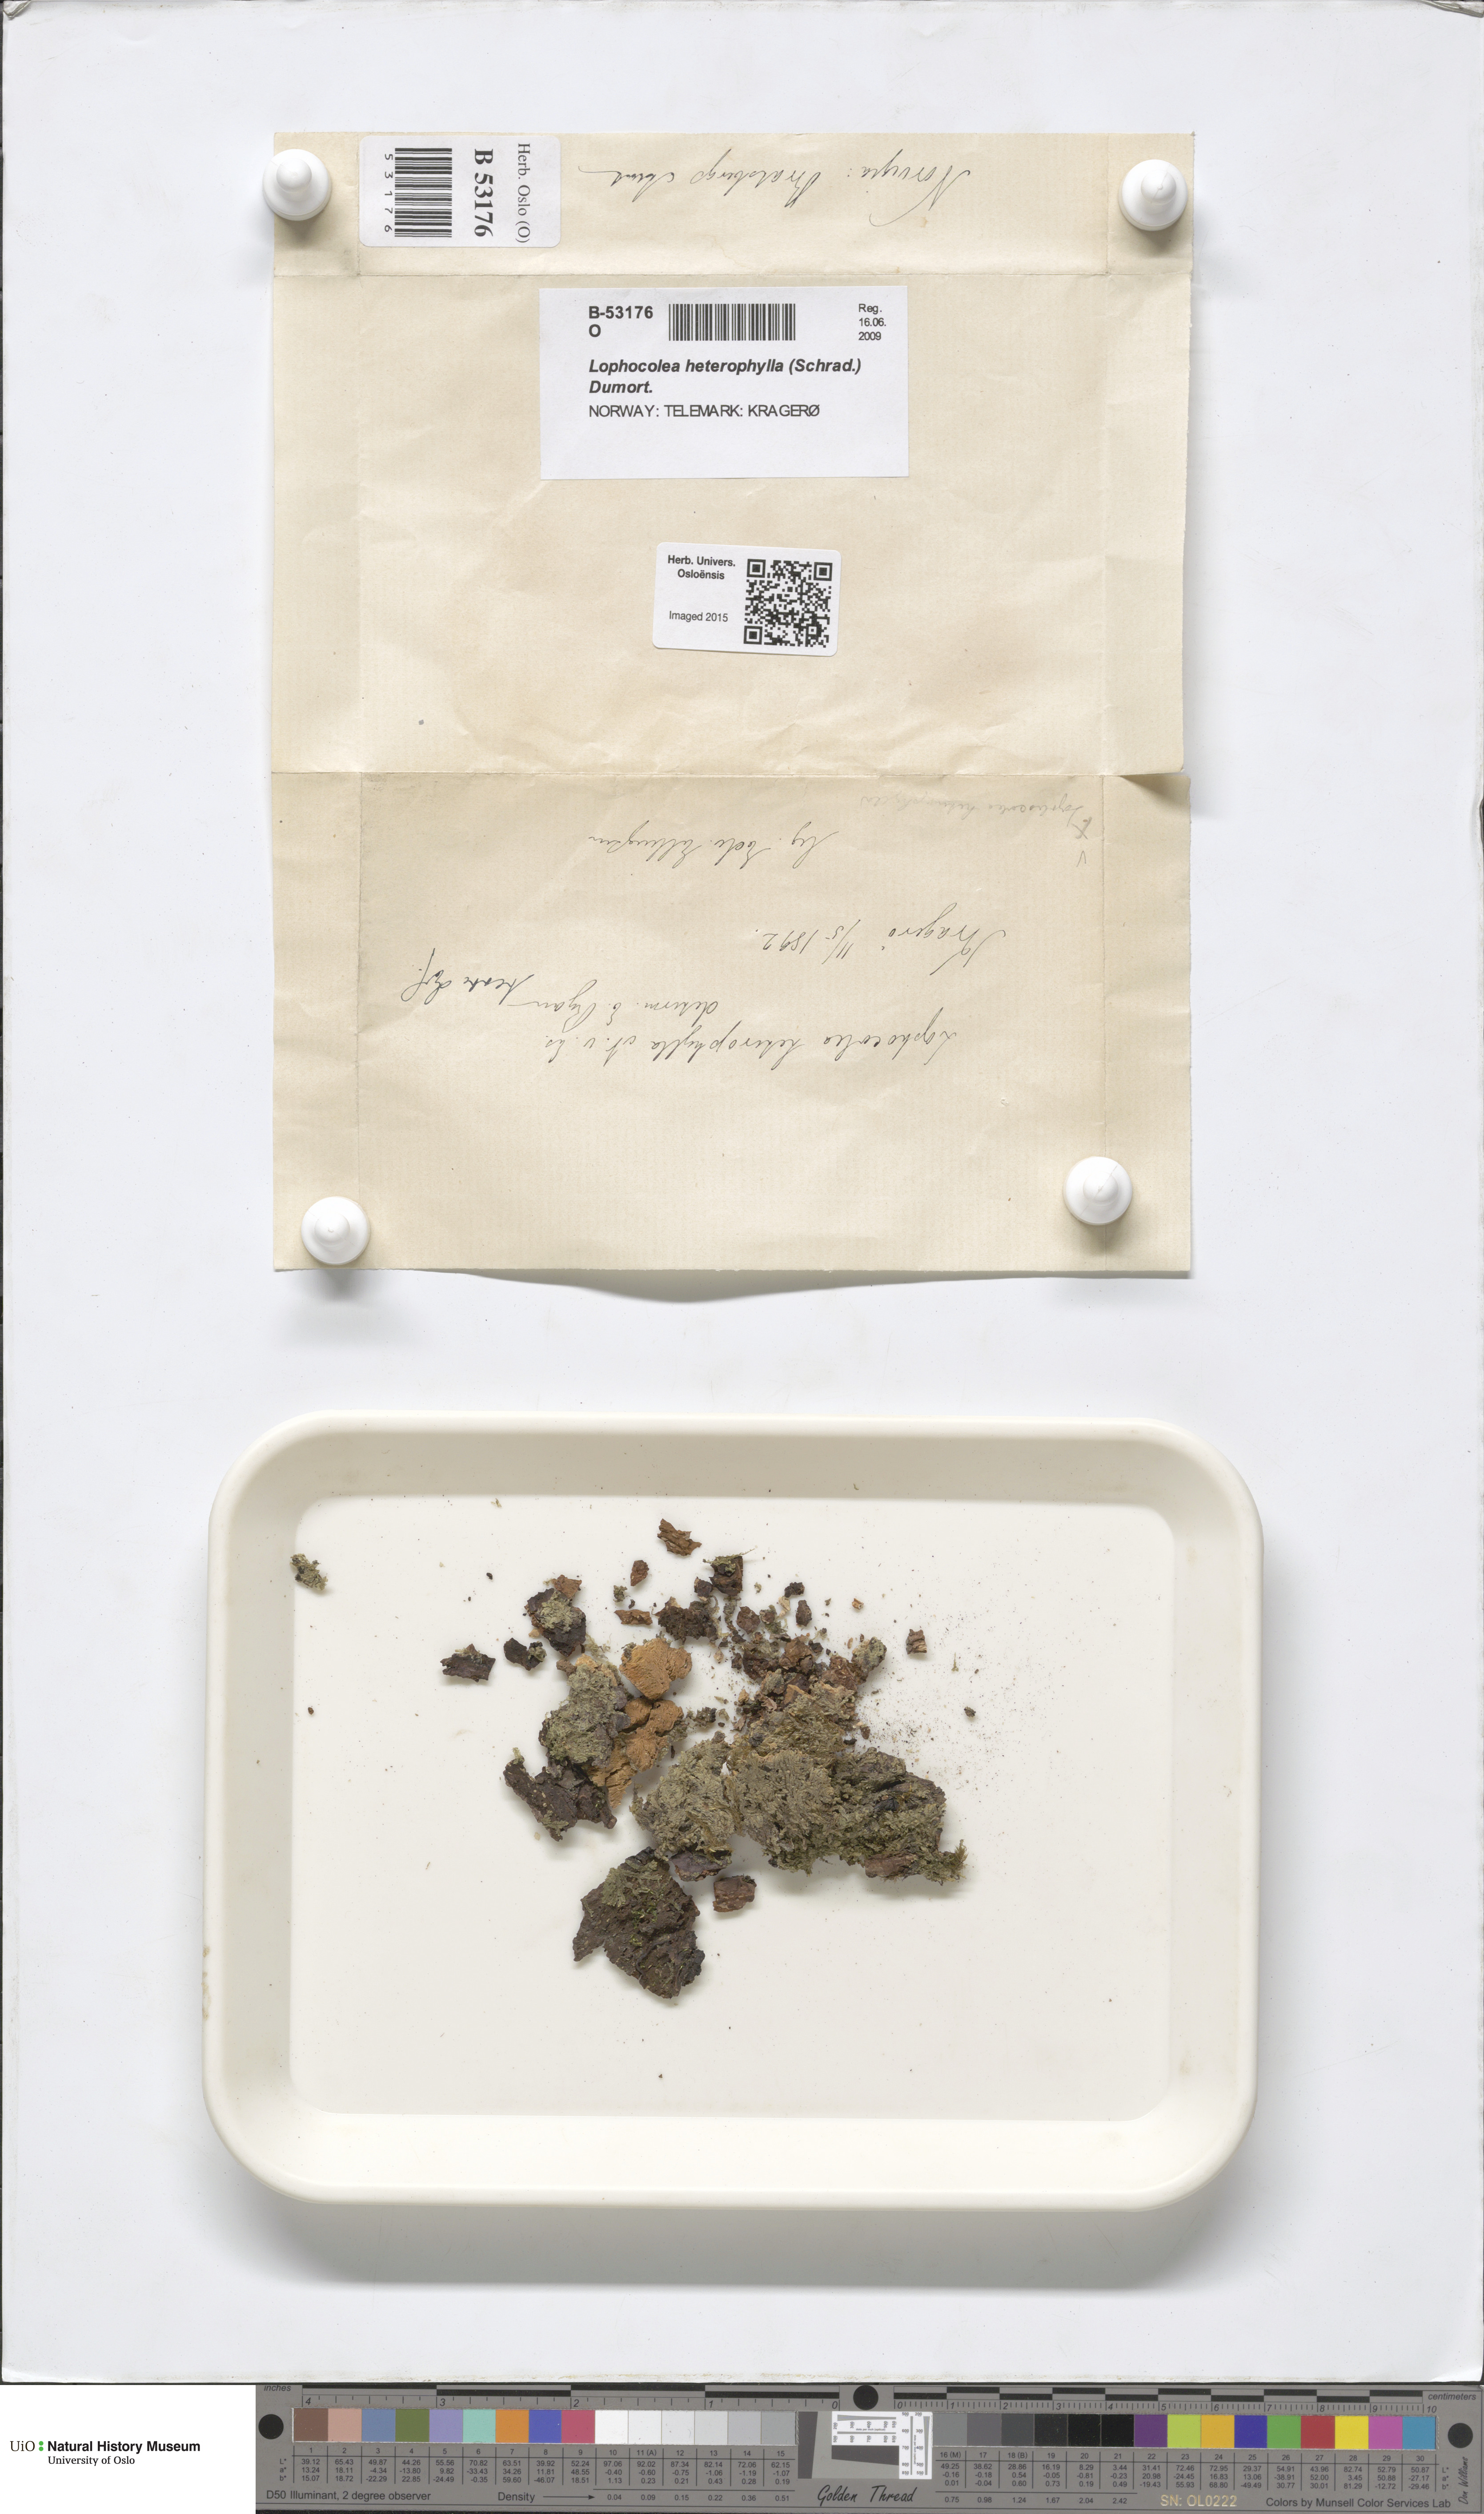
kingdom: Plantae
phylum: Marchantiophyta
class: Jungermanniopsida
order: Jungermanniales
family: Lophocoleaceae
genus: Lophocolea
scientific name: Lophocolea heterophylla
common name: Variable-leaved crestwort
